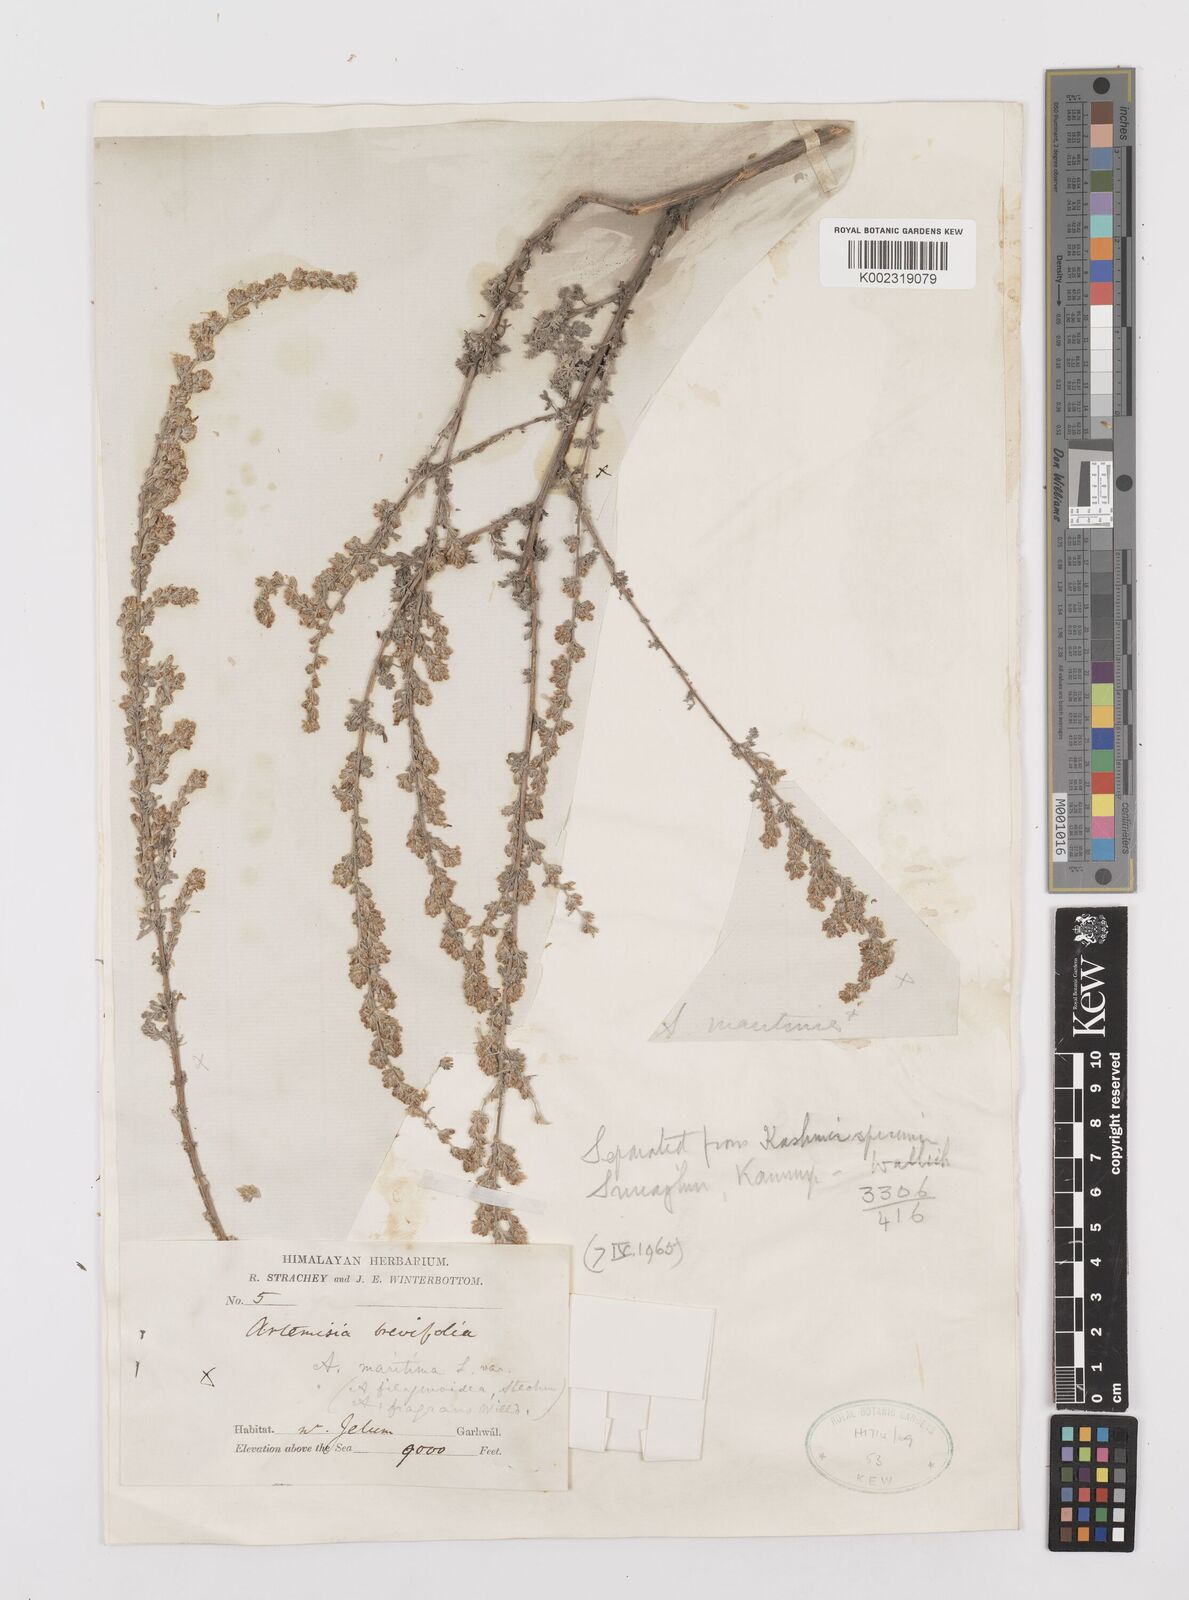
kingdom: Plantae
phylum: Tracheophyta
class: Magnoliopsida
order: Asterales
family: Asteraceae
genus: Artemisia
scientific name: Artemisia compacta
